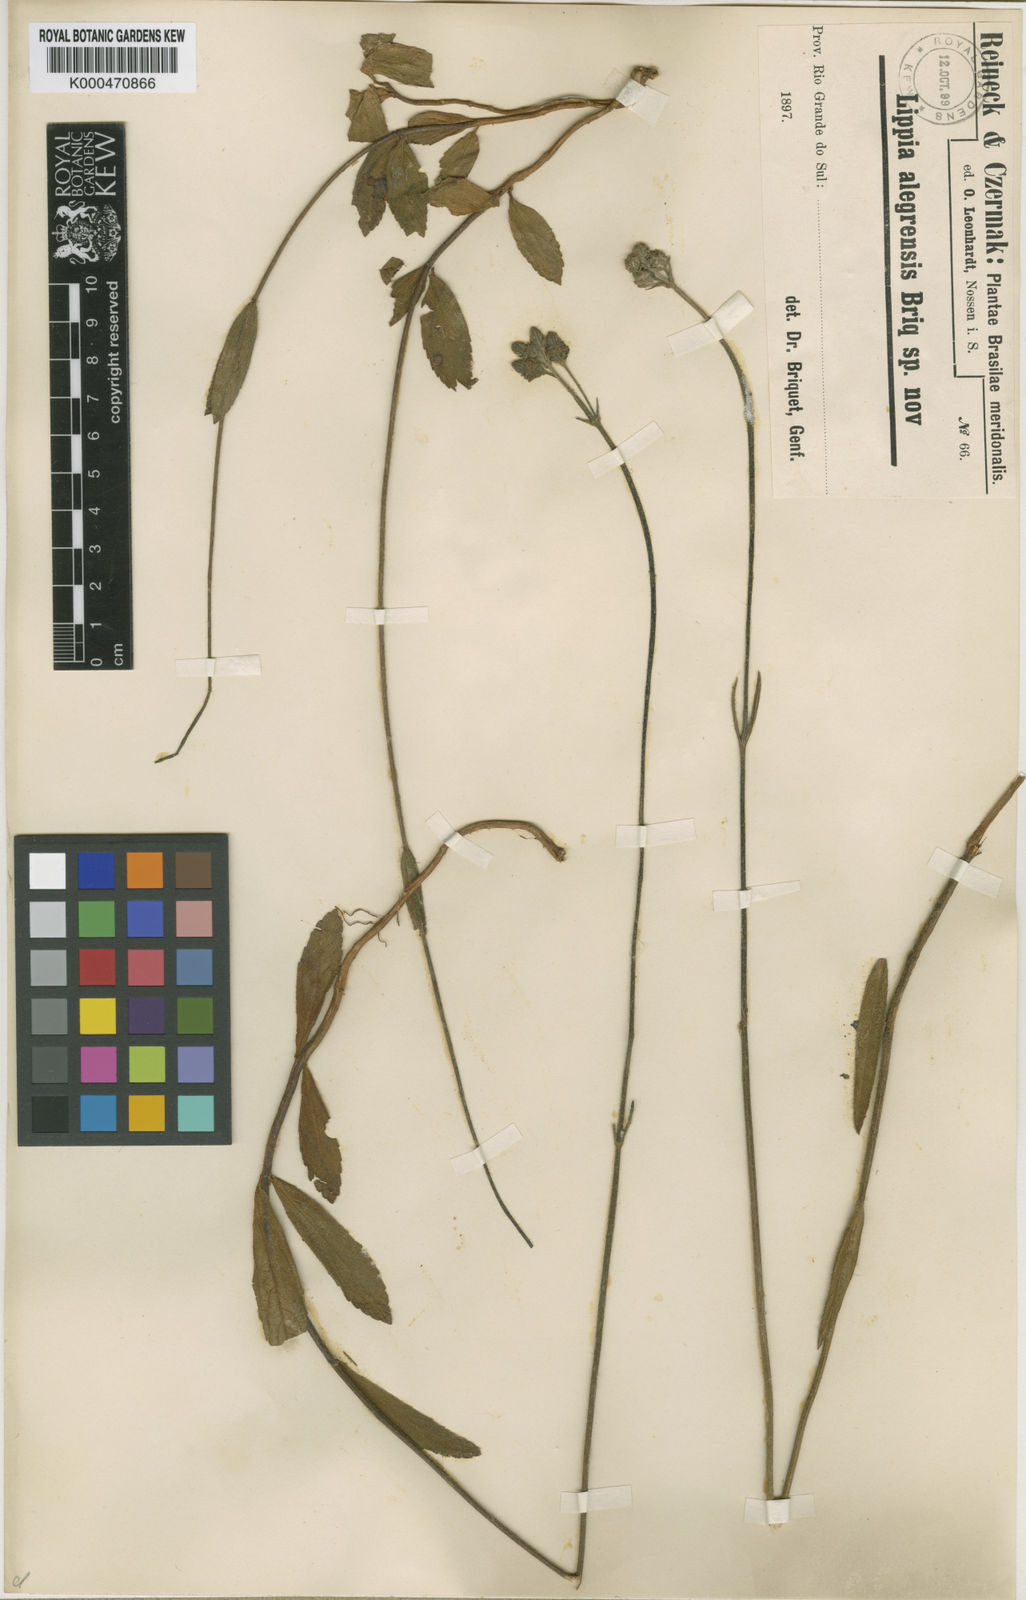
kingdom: Plantae
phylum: Tracheophyta
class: Magnoliopsida
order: Lamiales
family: Verbenaceae
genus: Lippia
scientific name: Lippia
